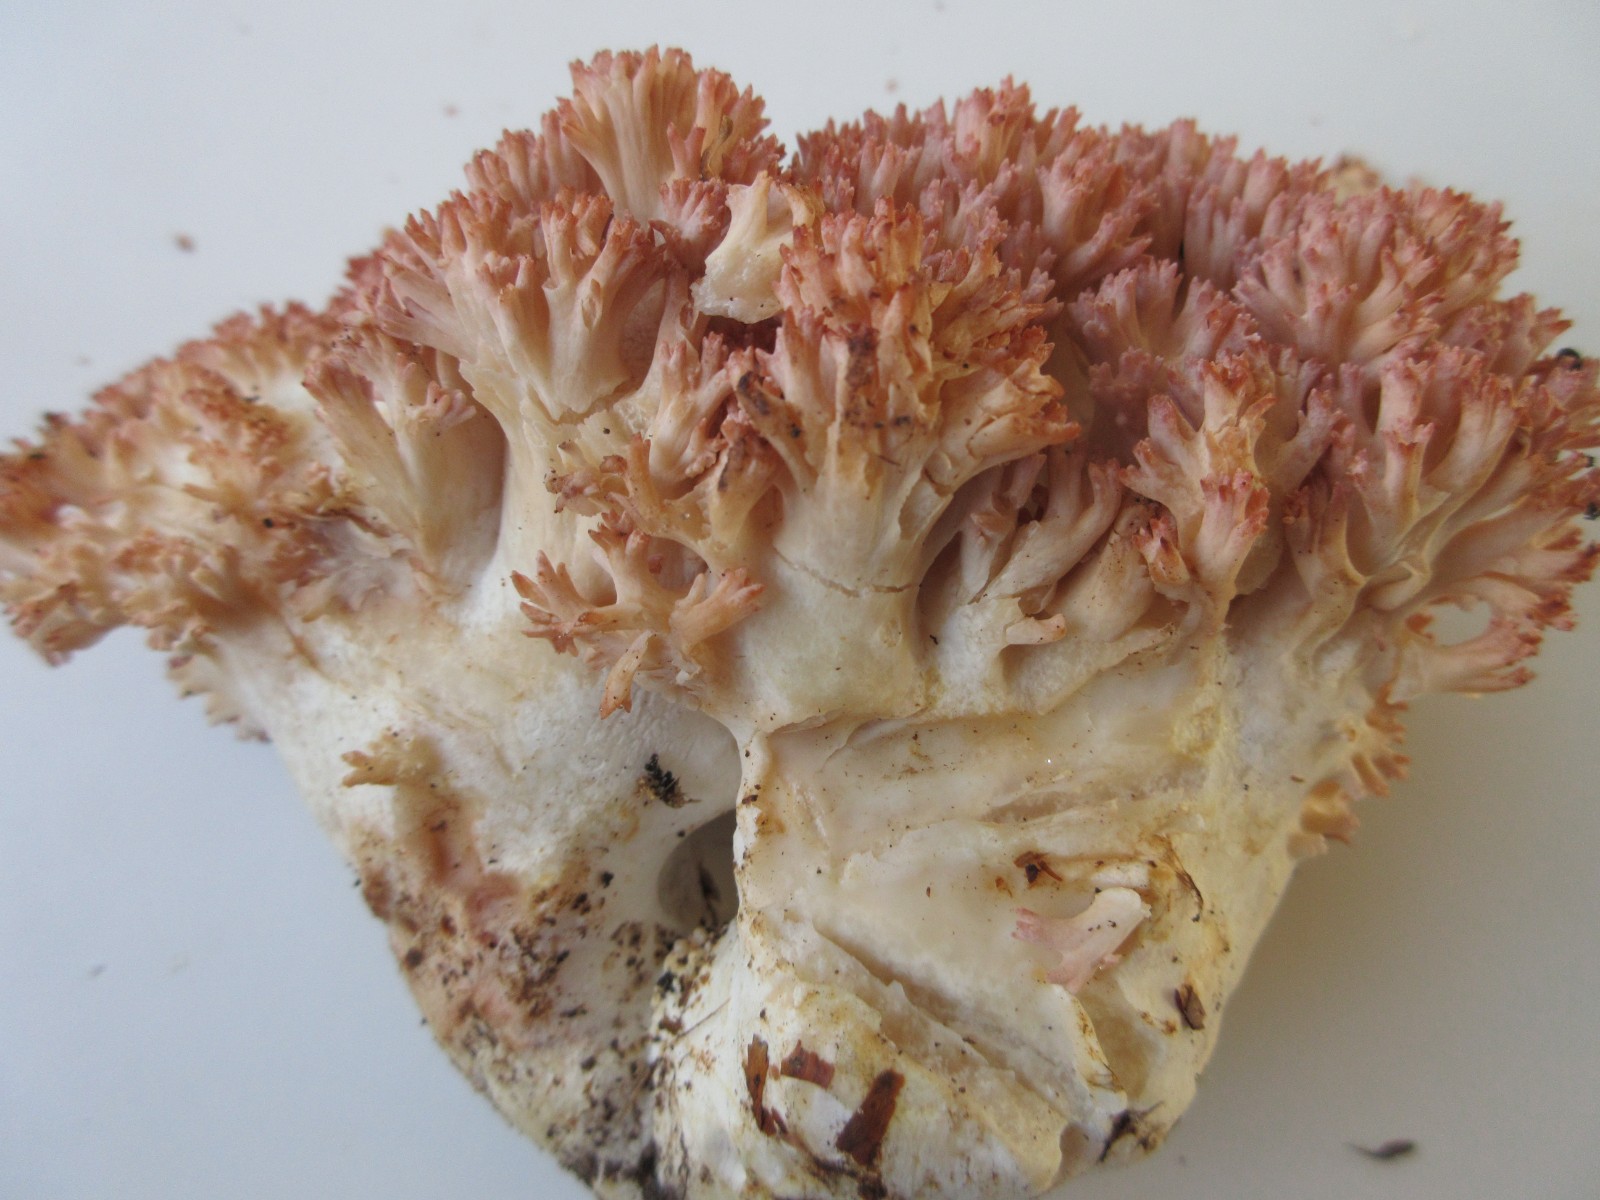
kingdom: Fungi
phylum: Basidiomycota
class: Agaricomycetes
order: Gomphales
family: Gomphaceae
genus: Ramaria
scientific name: Ramaria botrytis
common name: drue-koralsvamp
